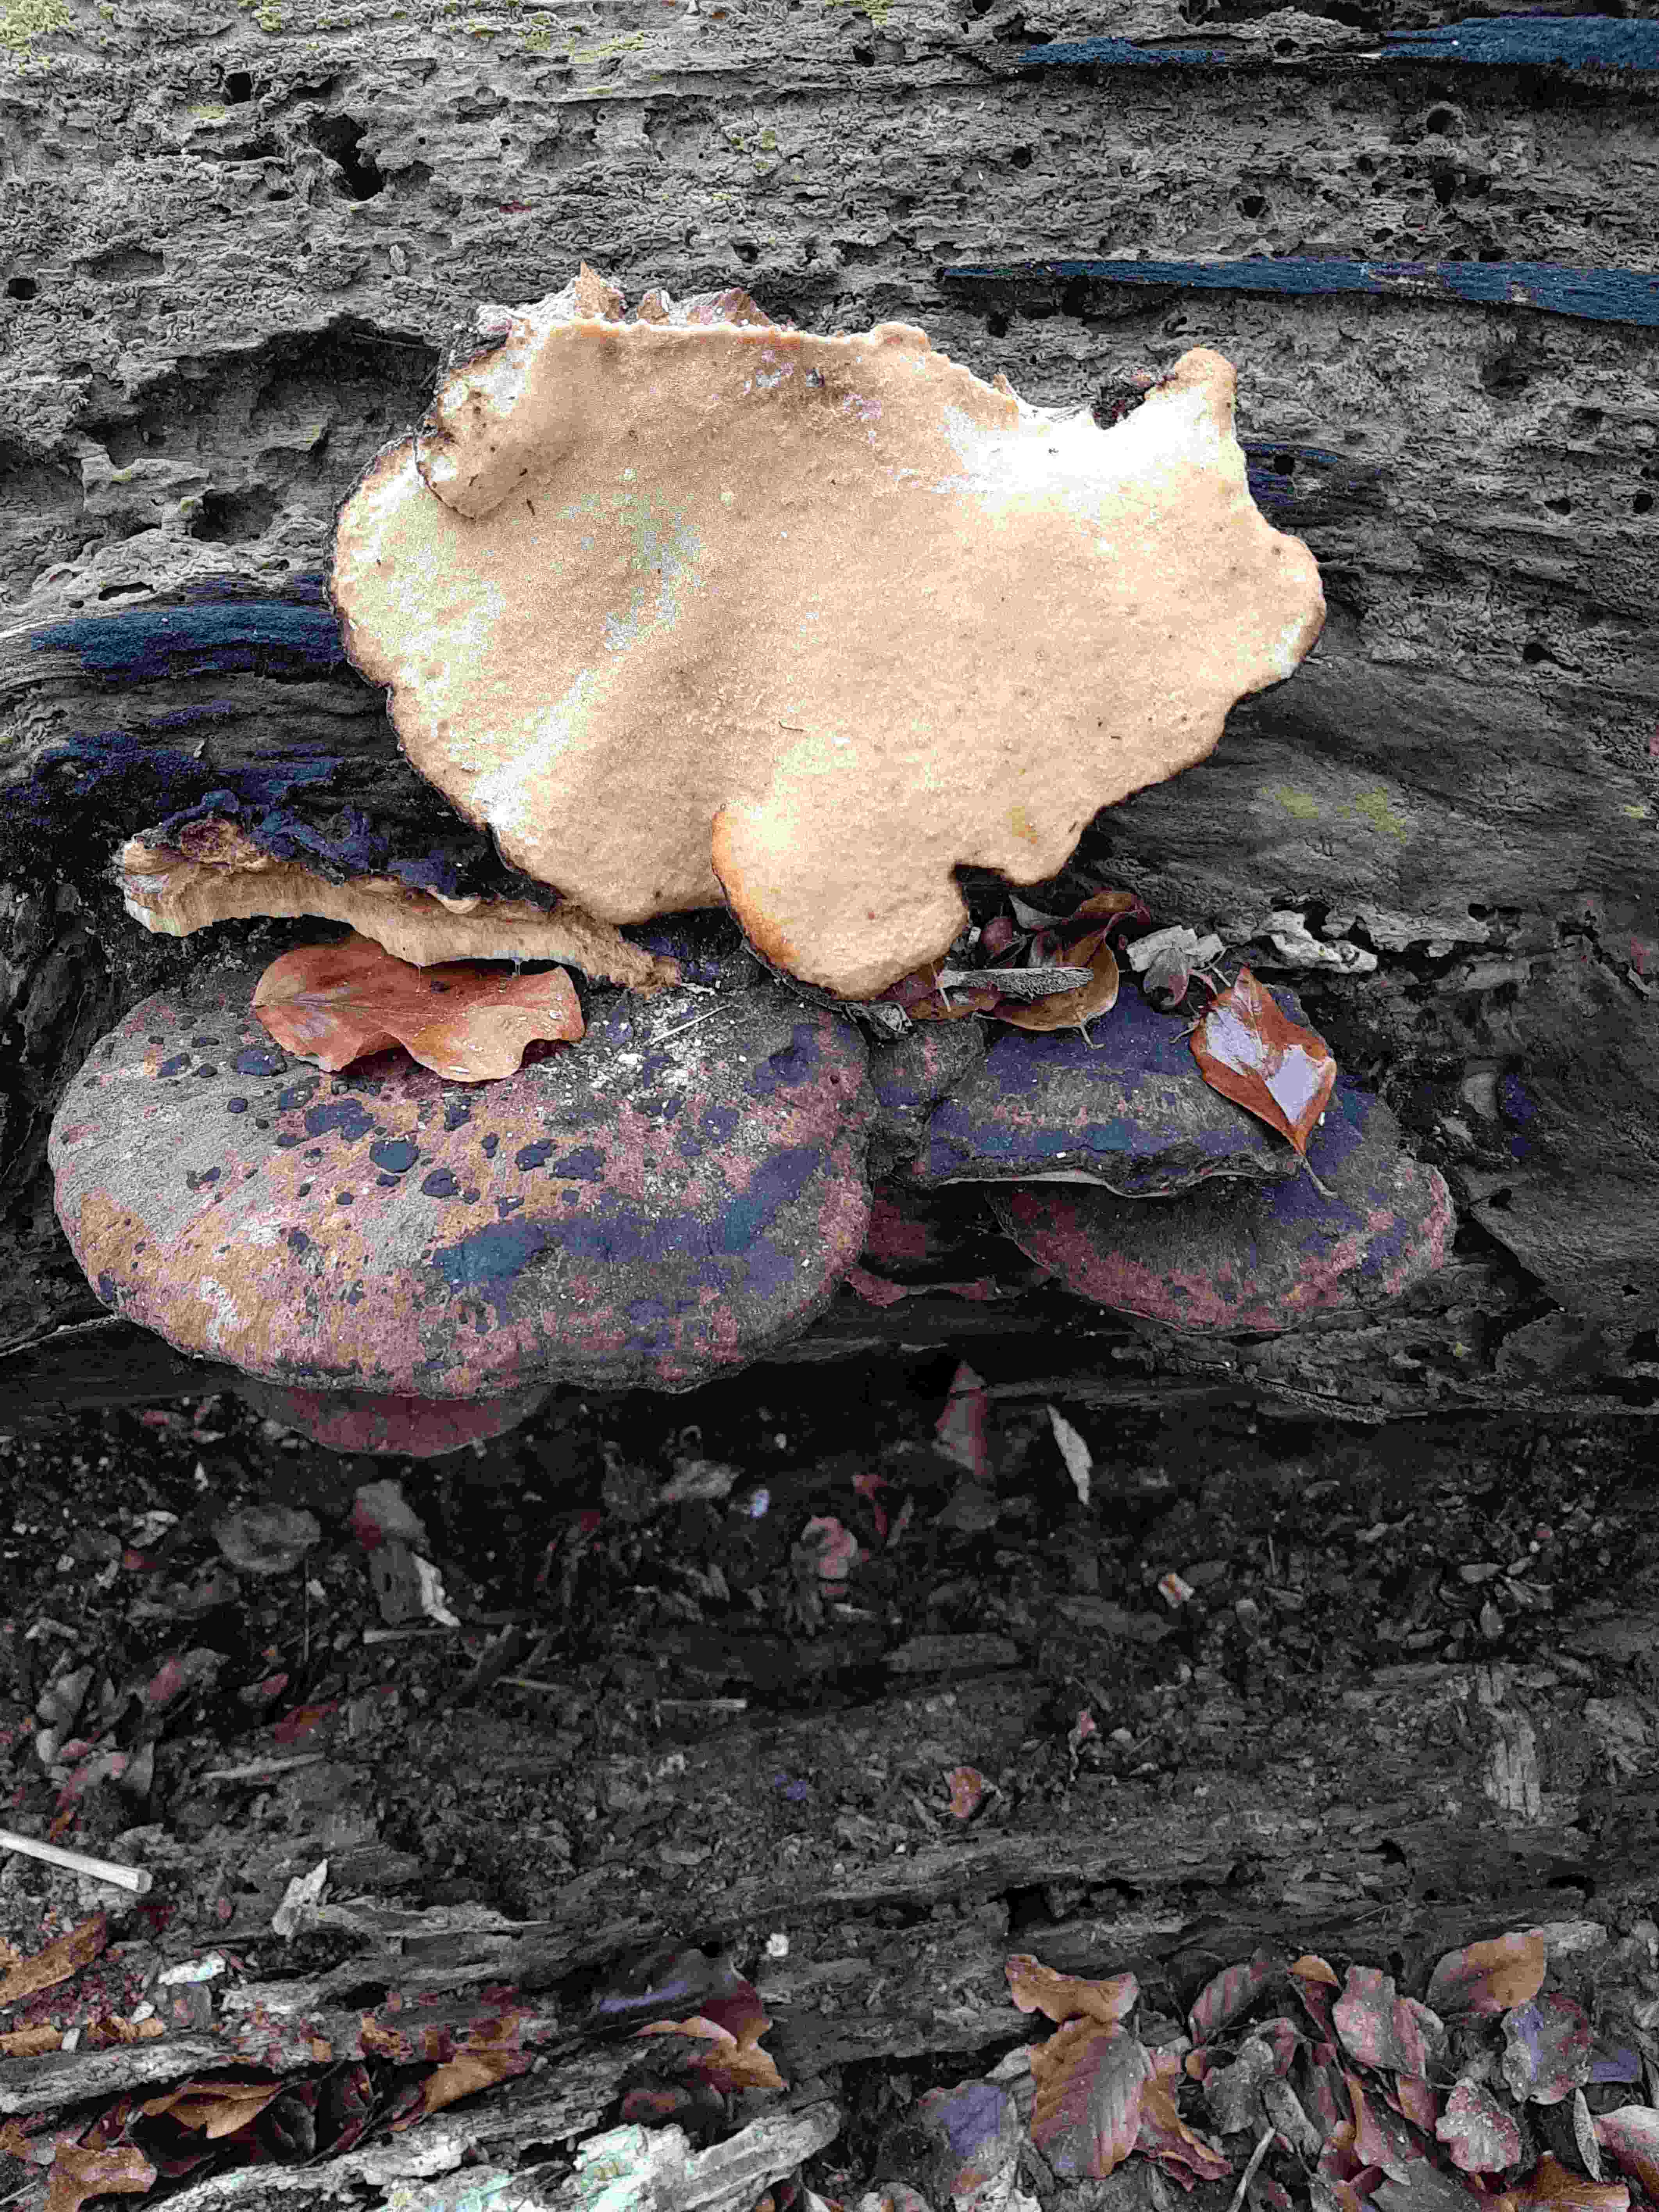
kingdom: Fungi
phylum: Basidiomycota
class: Agaricomycetes
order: Polyporales
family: Ischnodermataceae
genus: Ischnoderma
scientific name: Ischnoderma resinosum
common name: løv-tjæreporesvamp
